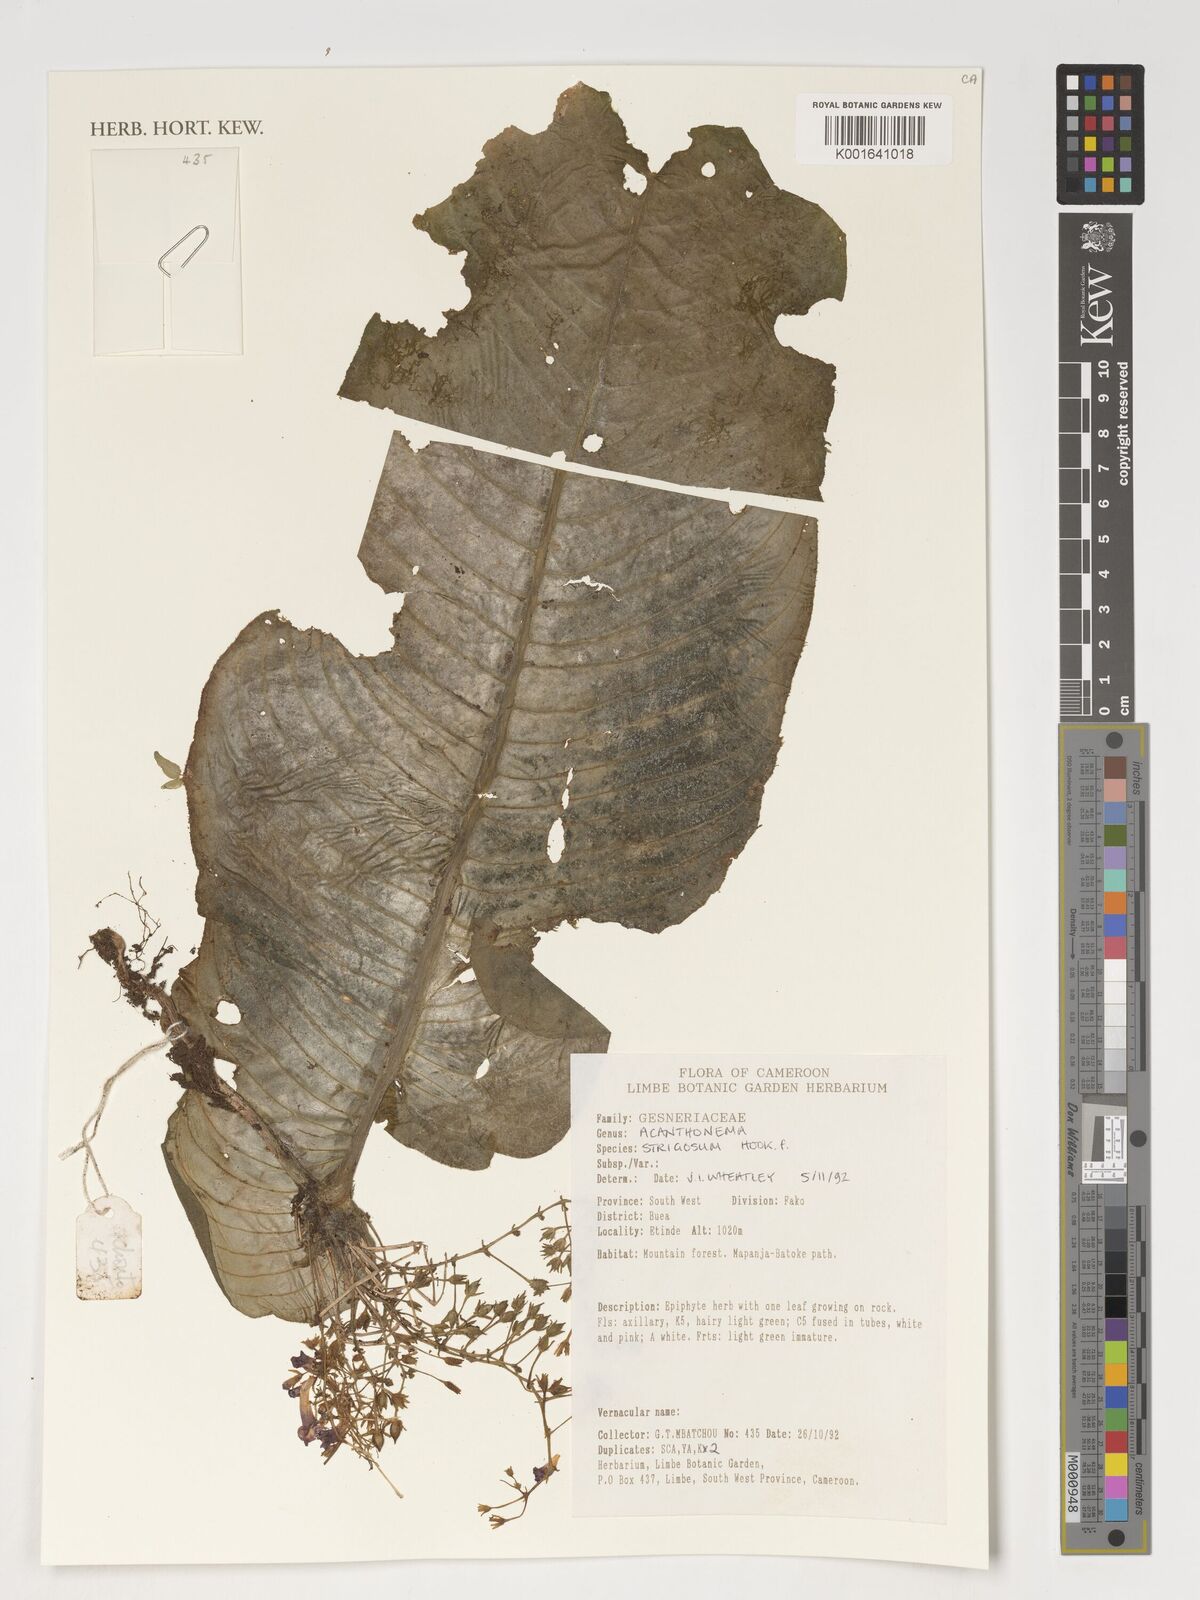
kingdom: Plantae
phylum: Tracheophyta
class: Magnoliopsida
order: Lamiales
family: Gesneriaceae
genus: Streptocarpus
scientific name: Streptocarpus strigosus
